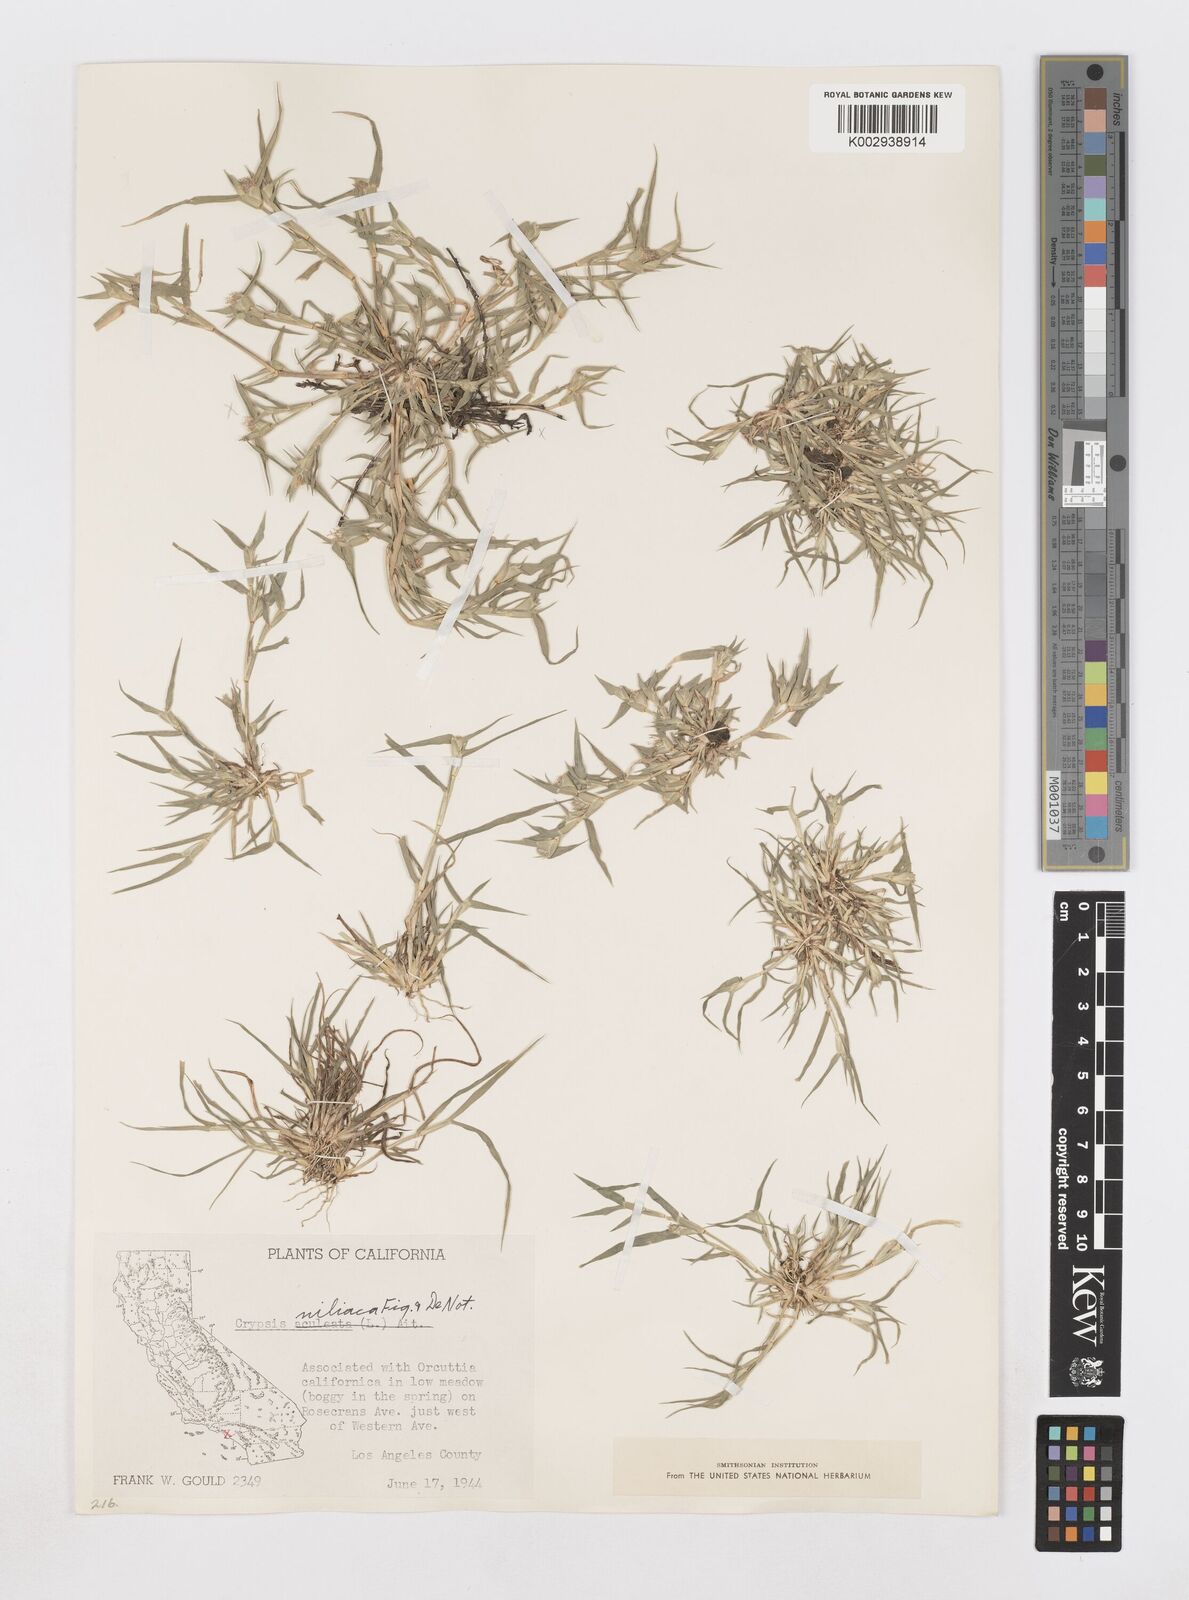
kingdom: Animalia
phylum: Arthropoda
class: Insecta
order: Coleoptera
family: Tenebrionidae
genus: Crypsis
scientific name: Crypsis
